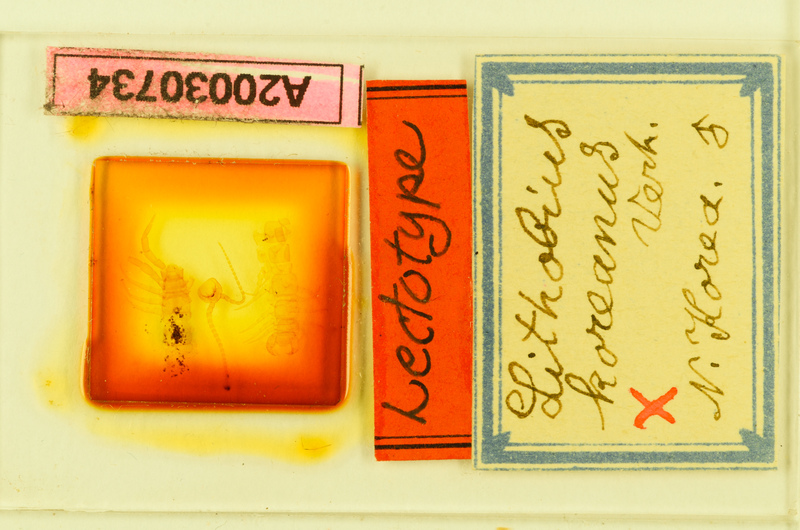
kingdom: Animalia
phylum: Arthropoda
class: Chilopoda
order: Lithobiomorpha
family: Lithobiidae
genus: Lithobius
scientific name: Lithobius koreanus
